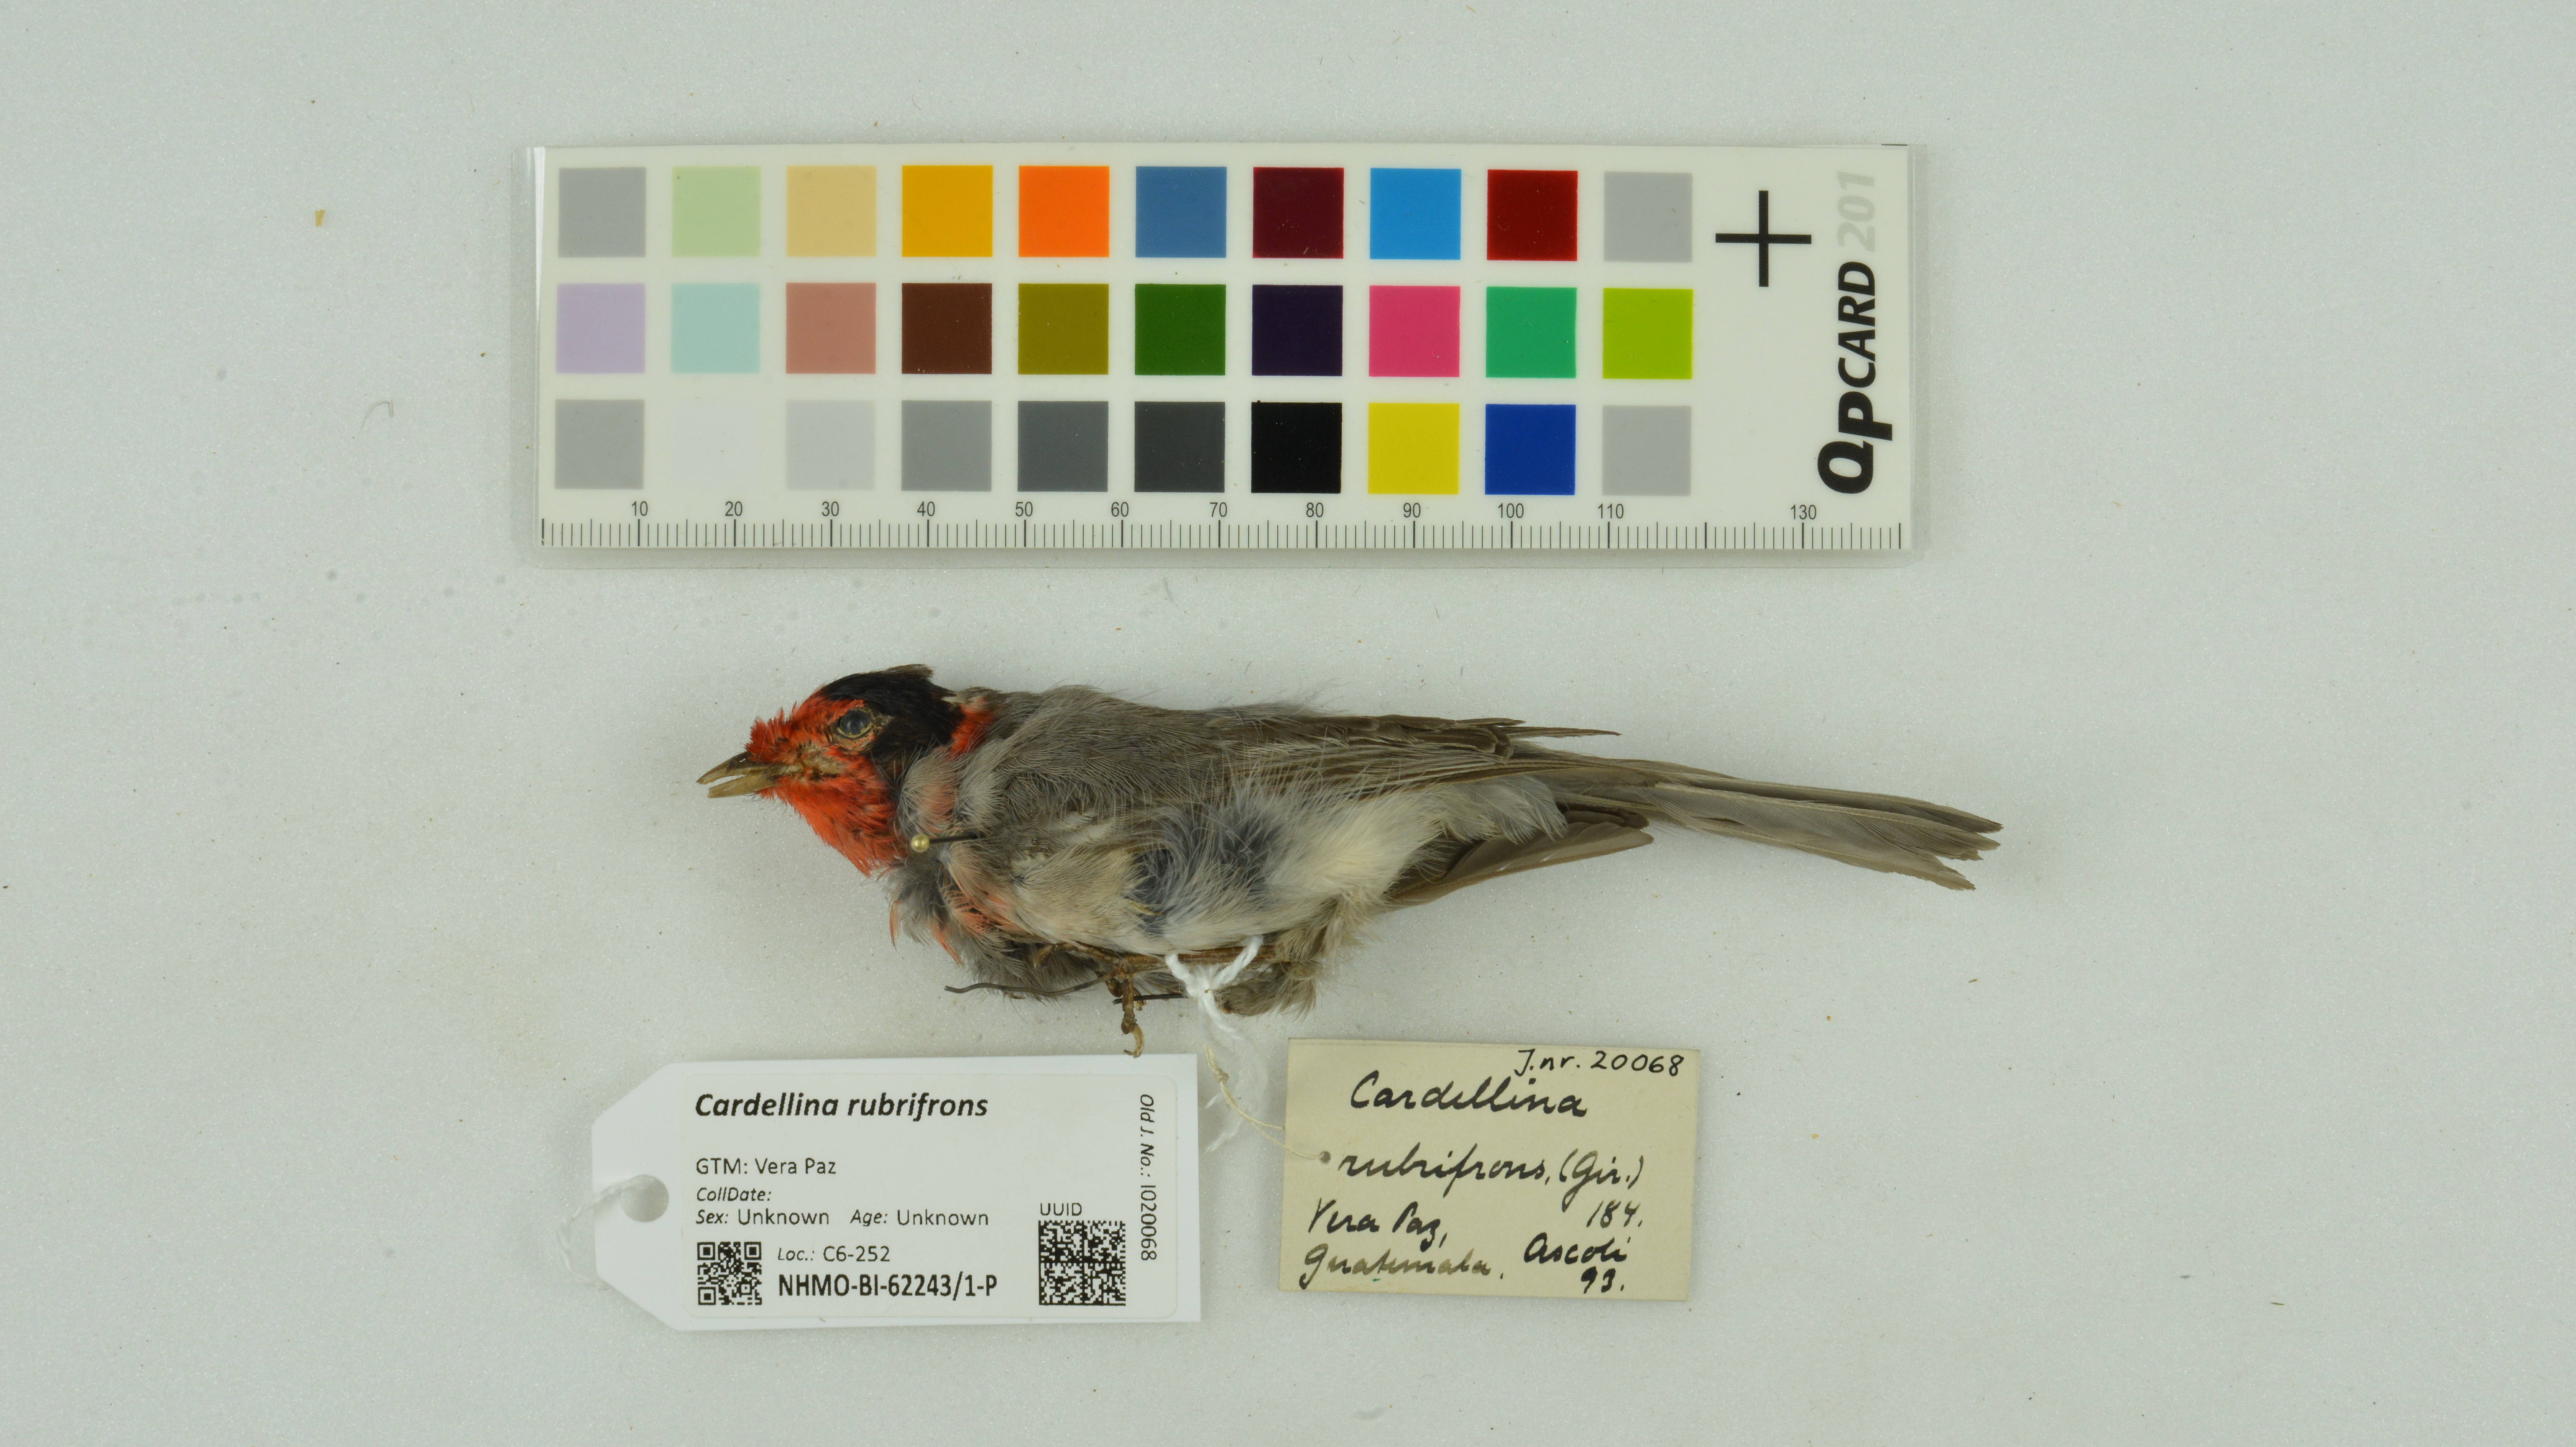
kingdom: Animalia
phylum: Chordata
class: Aves
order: Passeriformes
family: Parulidae
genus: Cardellina
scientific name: Cardellina rubrifrons
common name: Red-faced warbler
